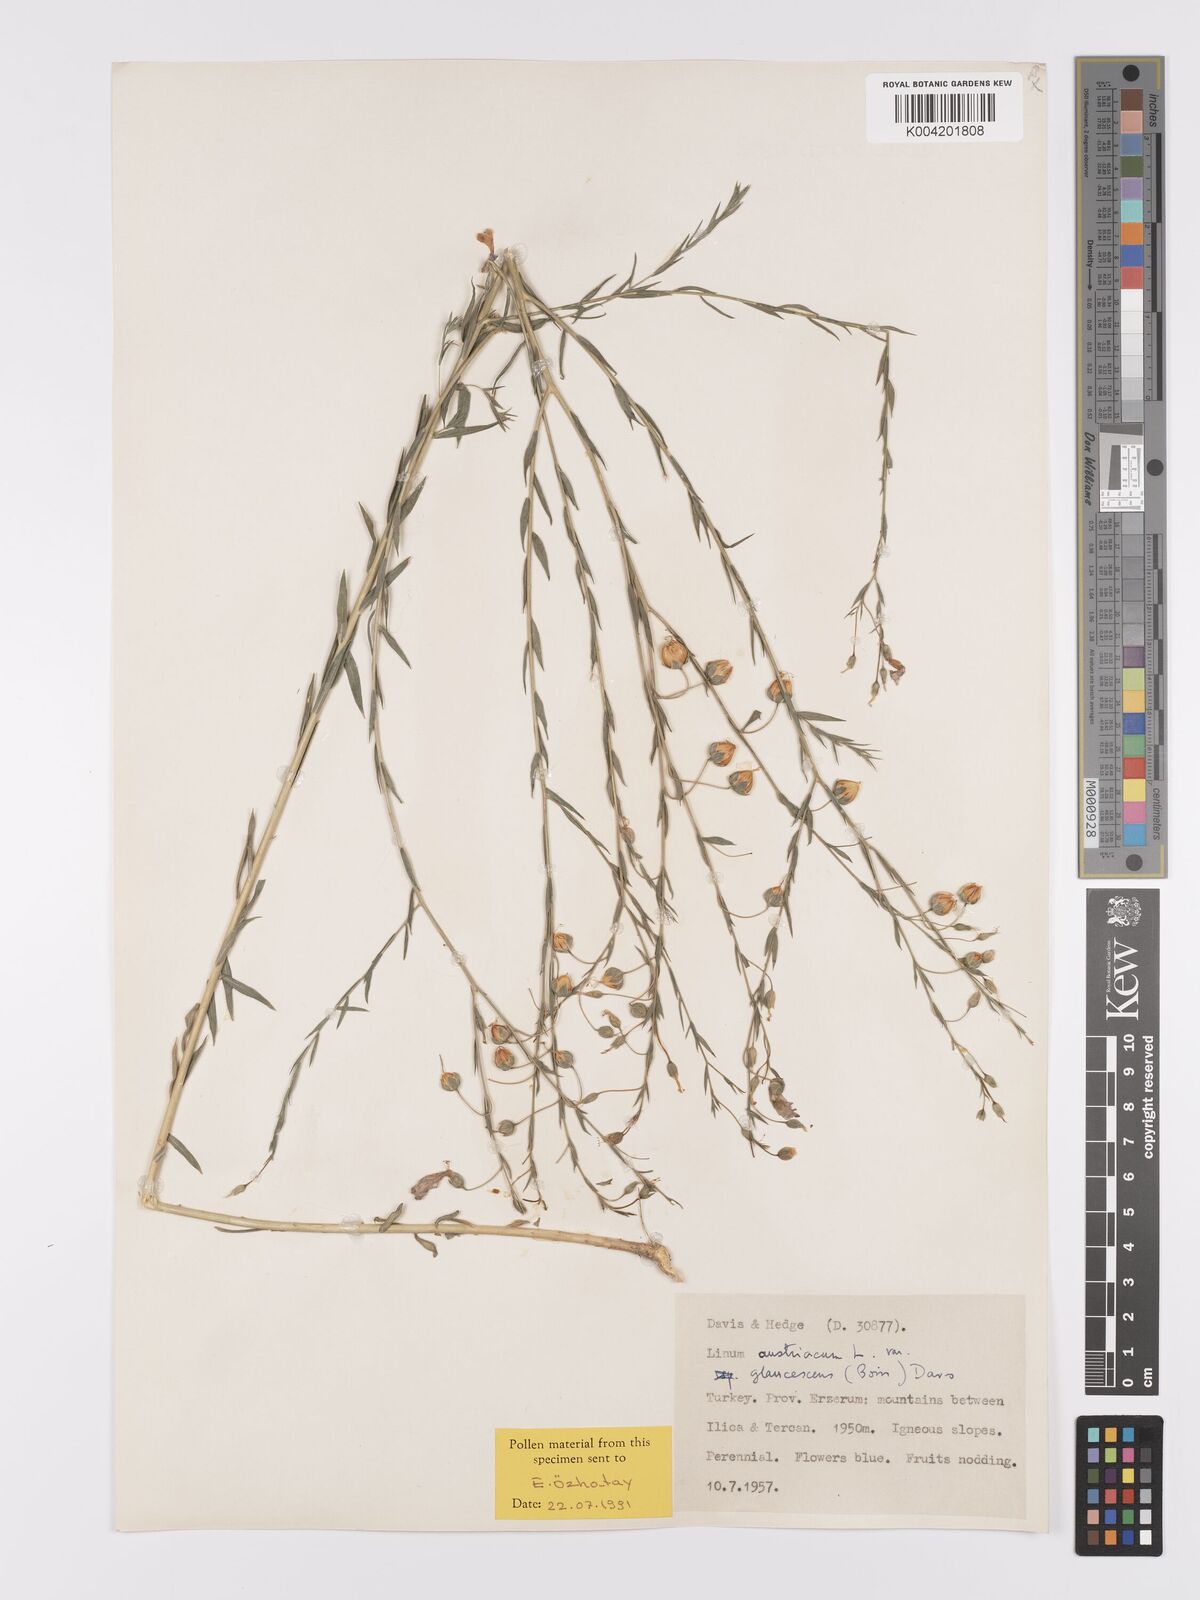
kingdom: Plantae
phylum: Tracheophyta
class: Magnoliopsida
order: Malpighiales
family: Linaceae
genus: Linum
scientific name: Linum
